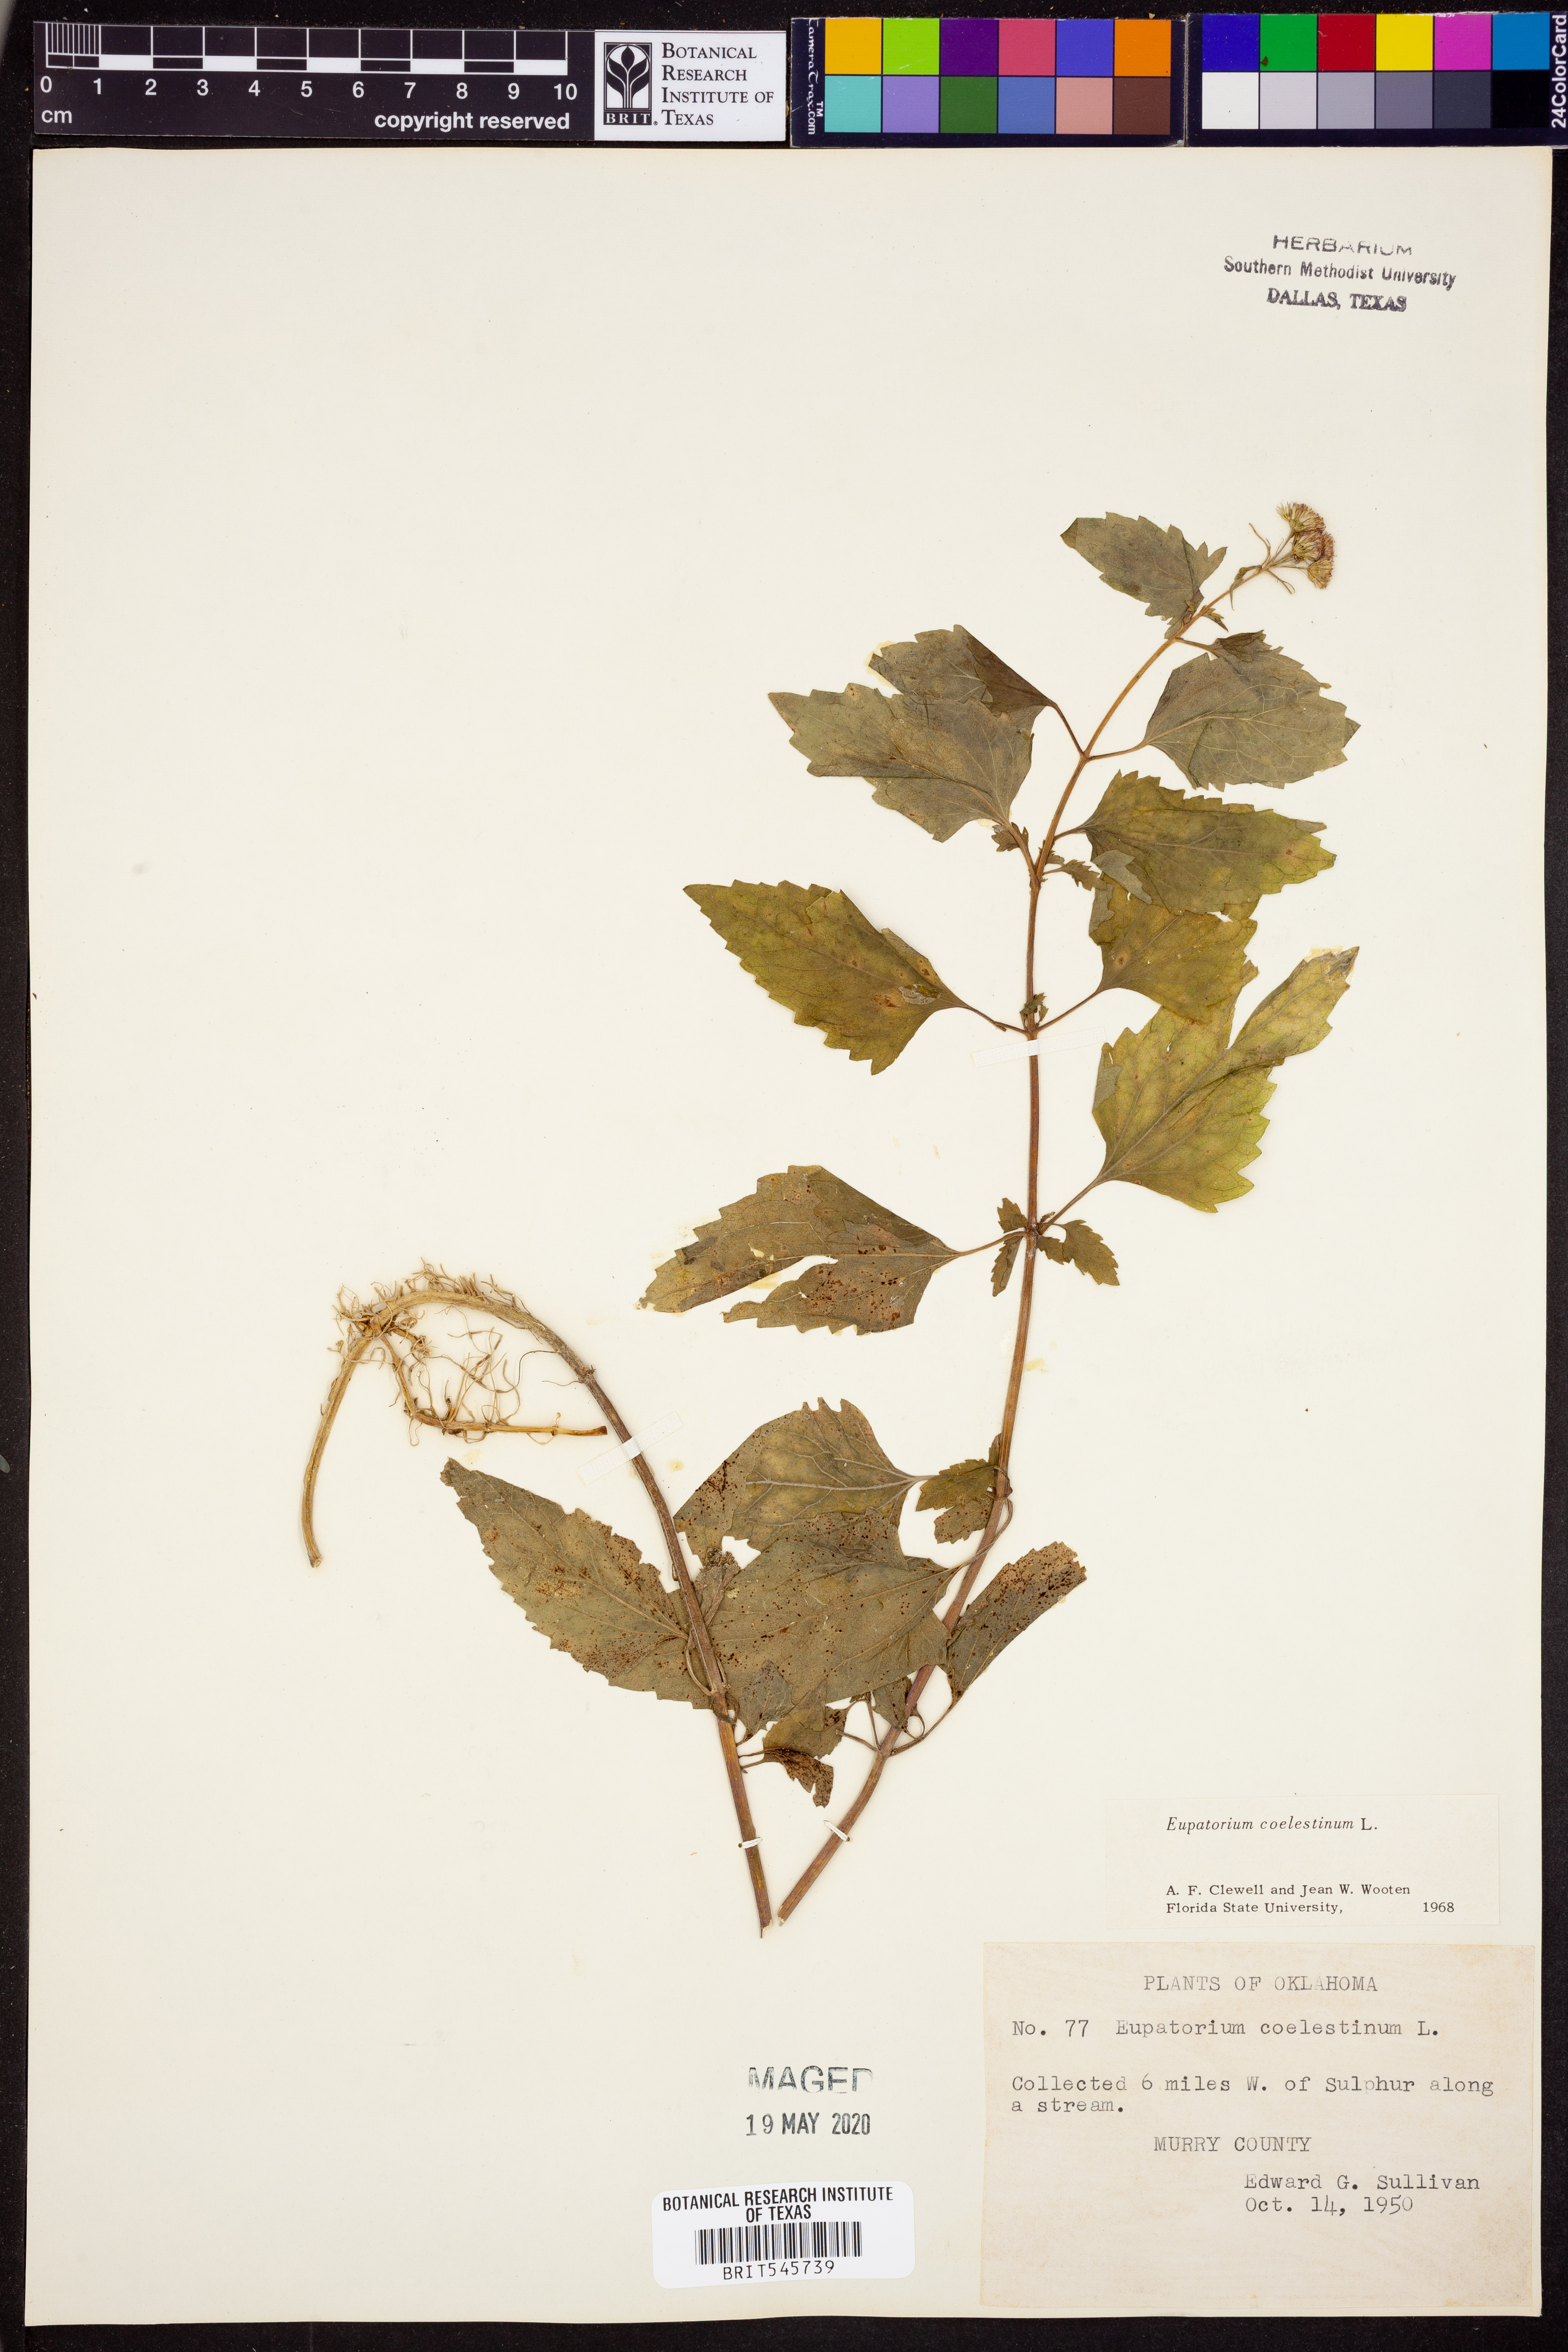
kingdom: Plantae
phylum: Tracheophyta
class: Magnoliopsida
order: Asterales
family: Asteraceae
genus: Conoclinium
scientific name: Conoclinium coelestinum
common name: Blue mistflower
